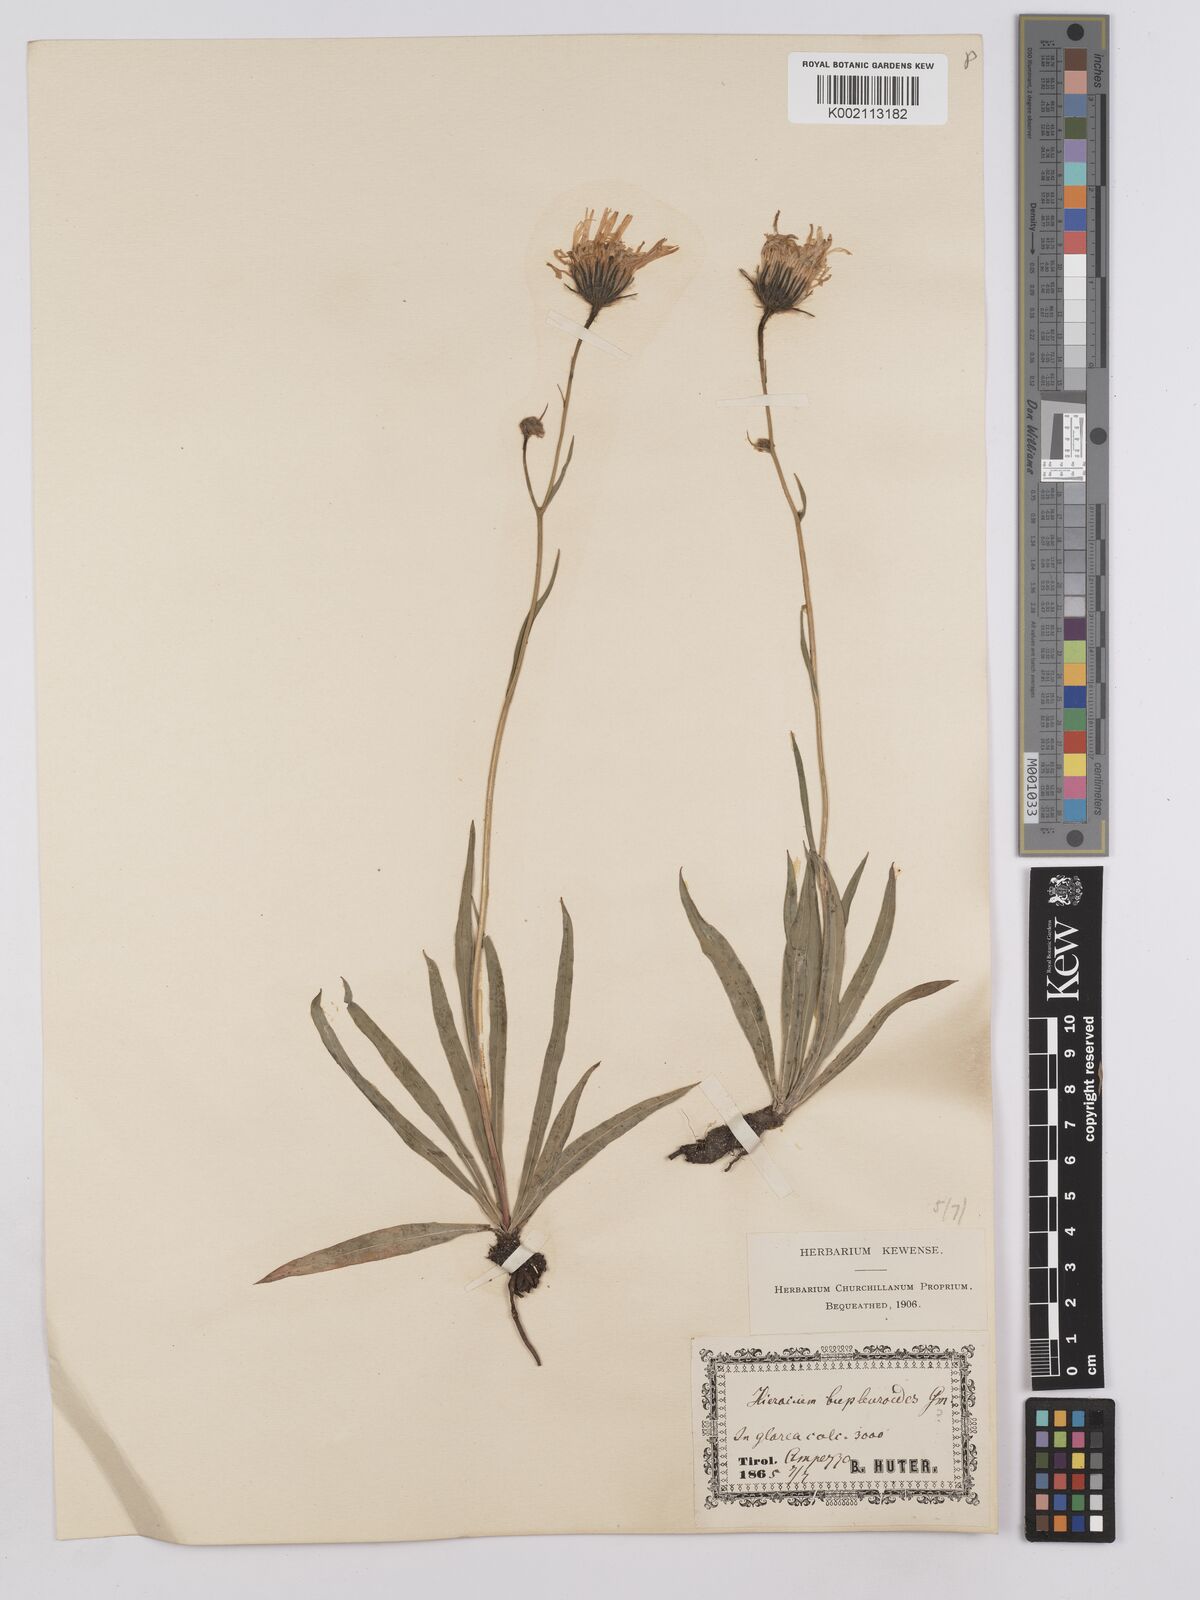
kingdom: Plantae
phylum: Tracheophyta
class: Magnoliopsida
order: Asterales
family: Asteraceae
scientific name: Asteraceae
